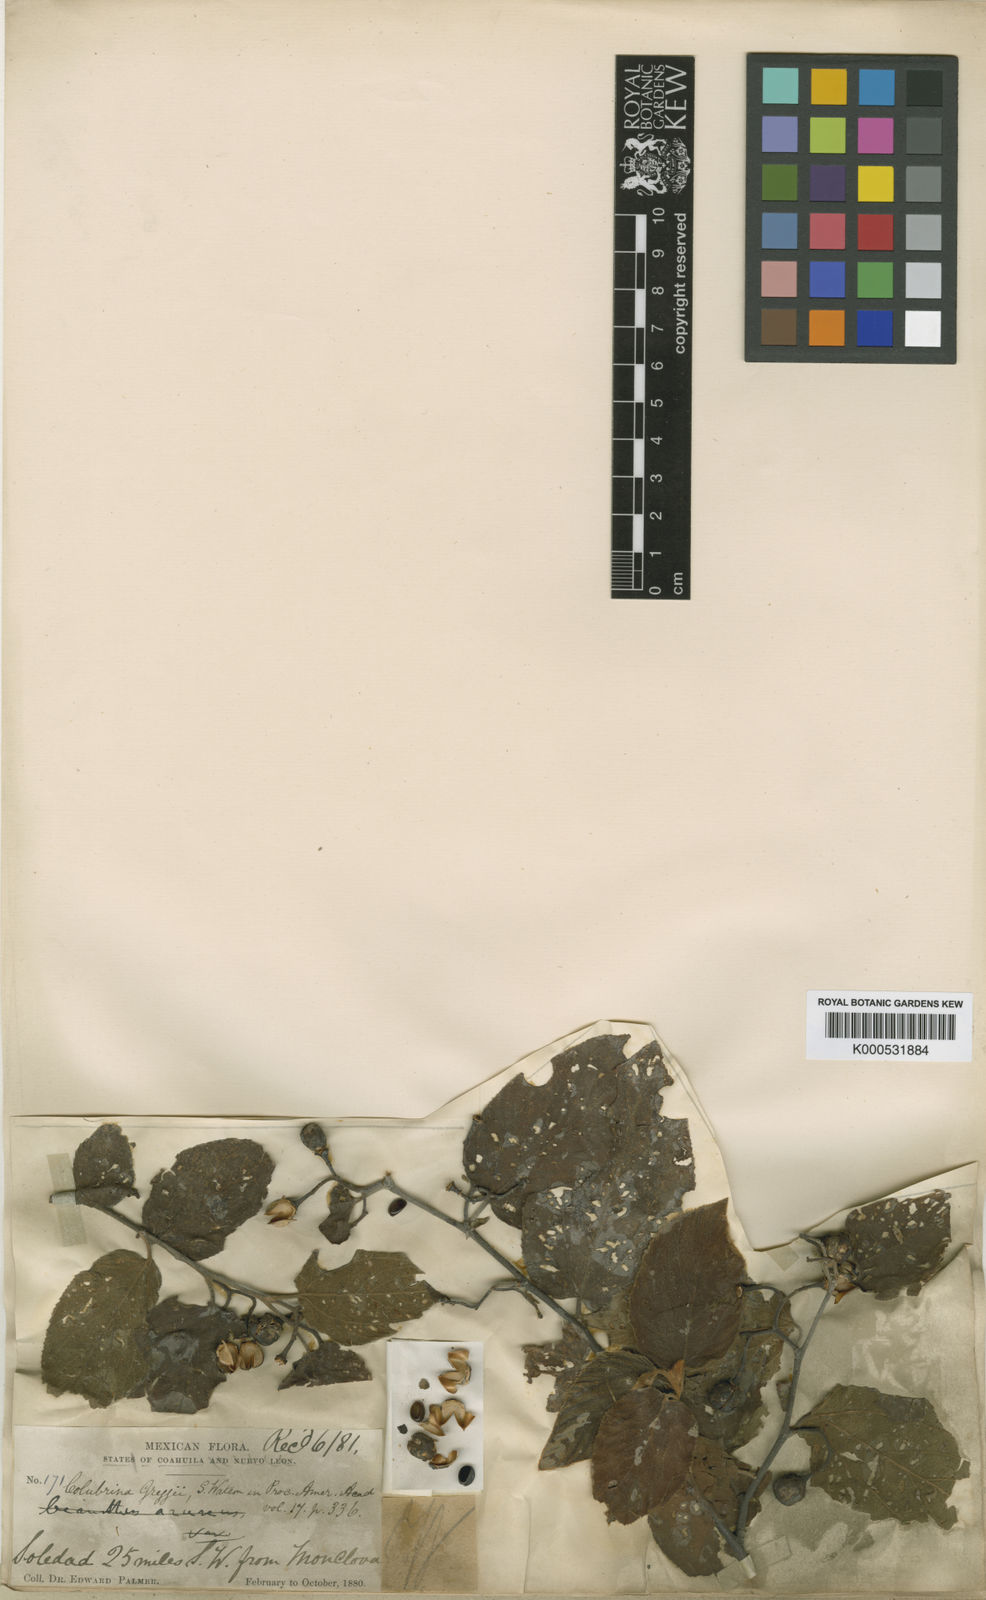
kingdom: Plantae
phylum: Tracheophyta
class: Magnoliopsida
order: Rosales
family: Rhamnaceae
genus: Colubrina
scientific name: Colubrina greggii
